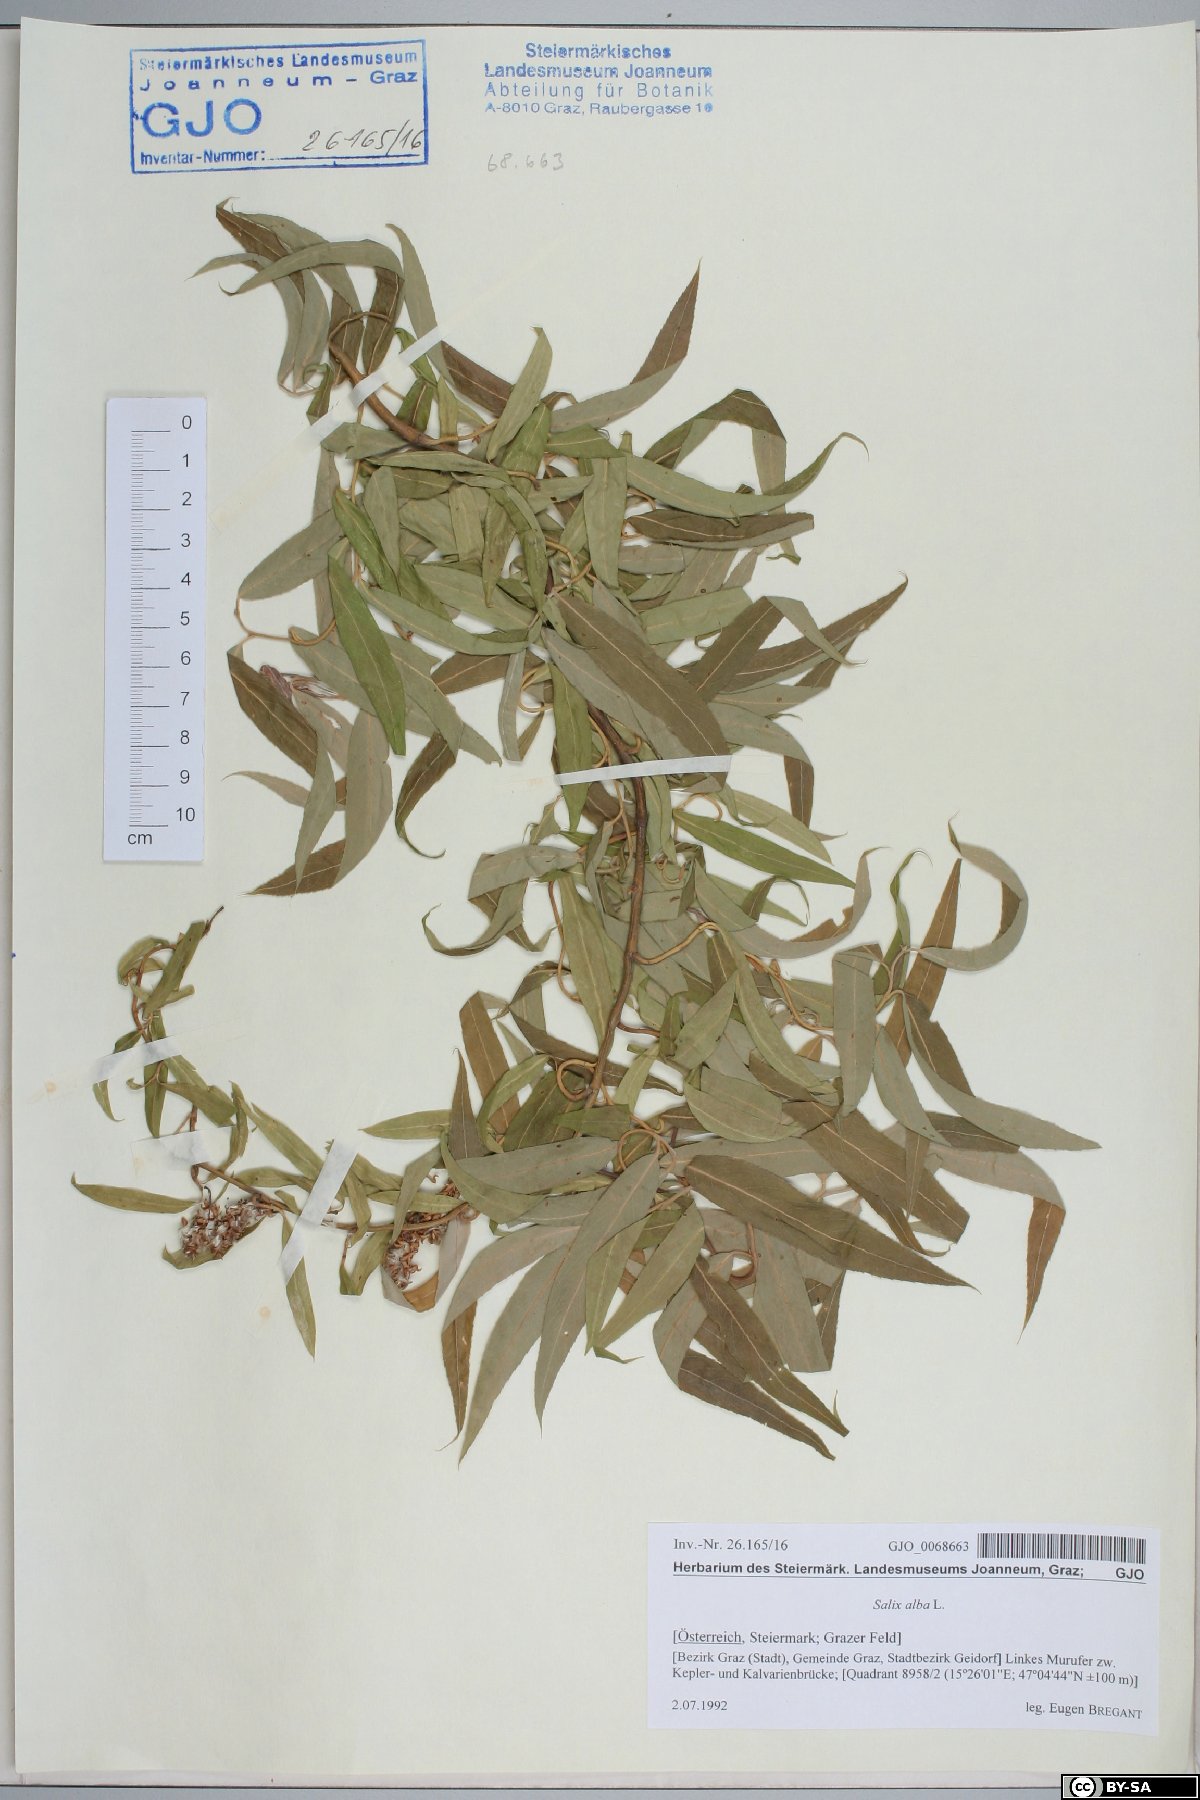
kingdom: Plantae
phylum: Tracheophyta
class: Magnoliopsida
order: Malpighiales
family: Salicaceae
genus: Salix
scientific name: Salix alba
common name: White willow
